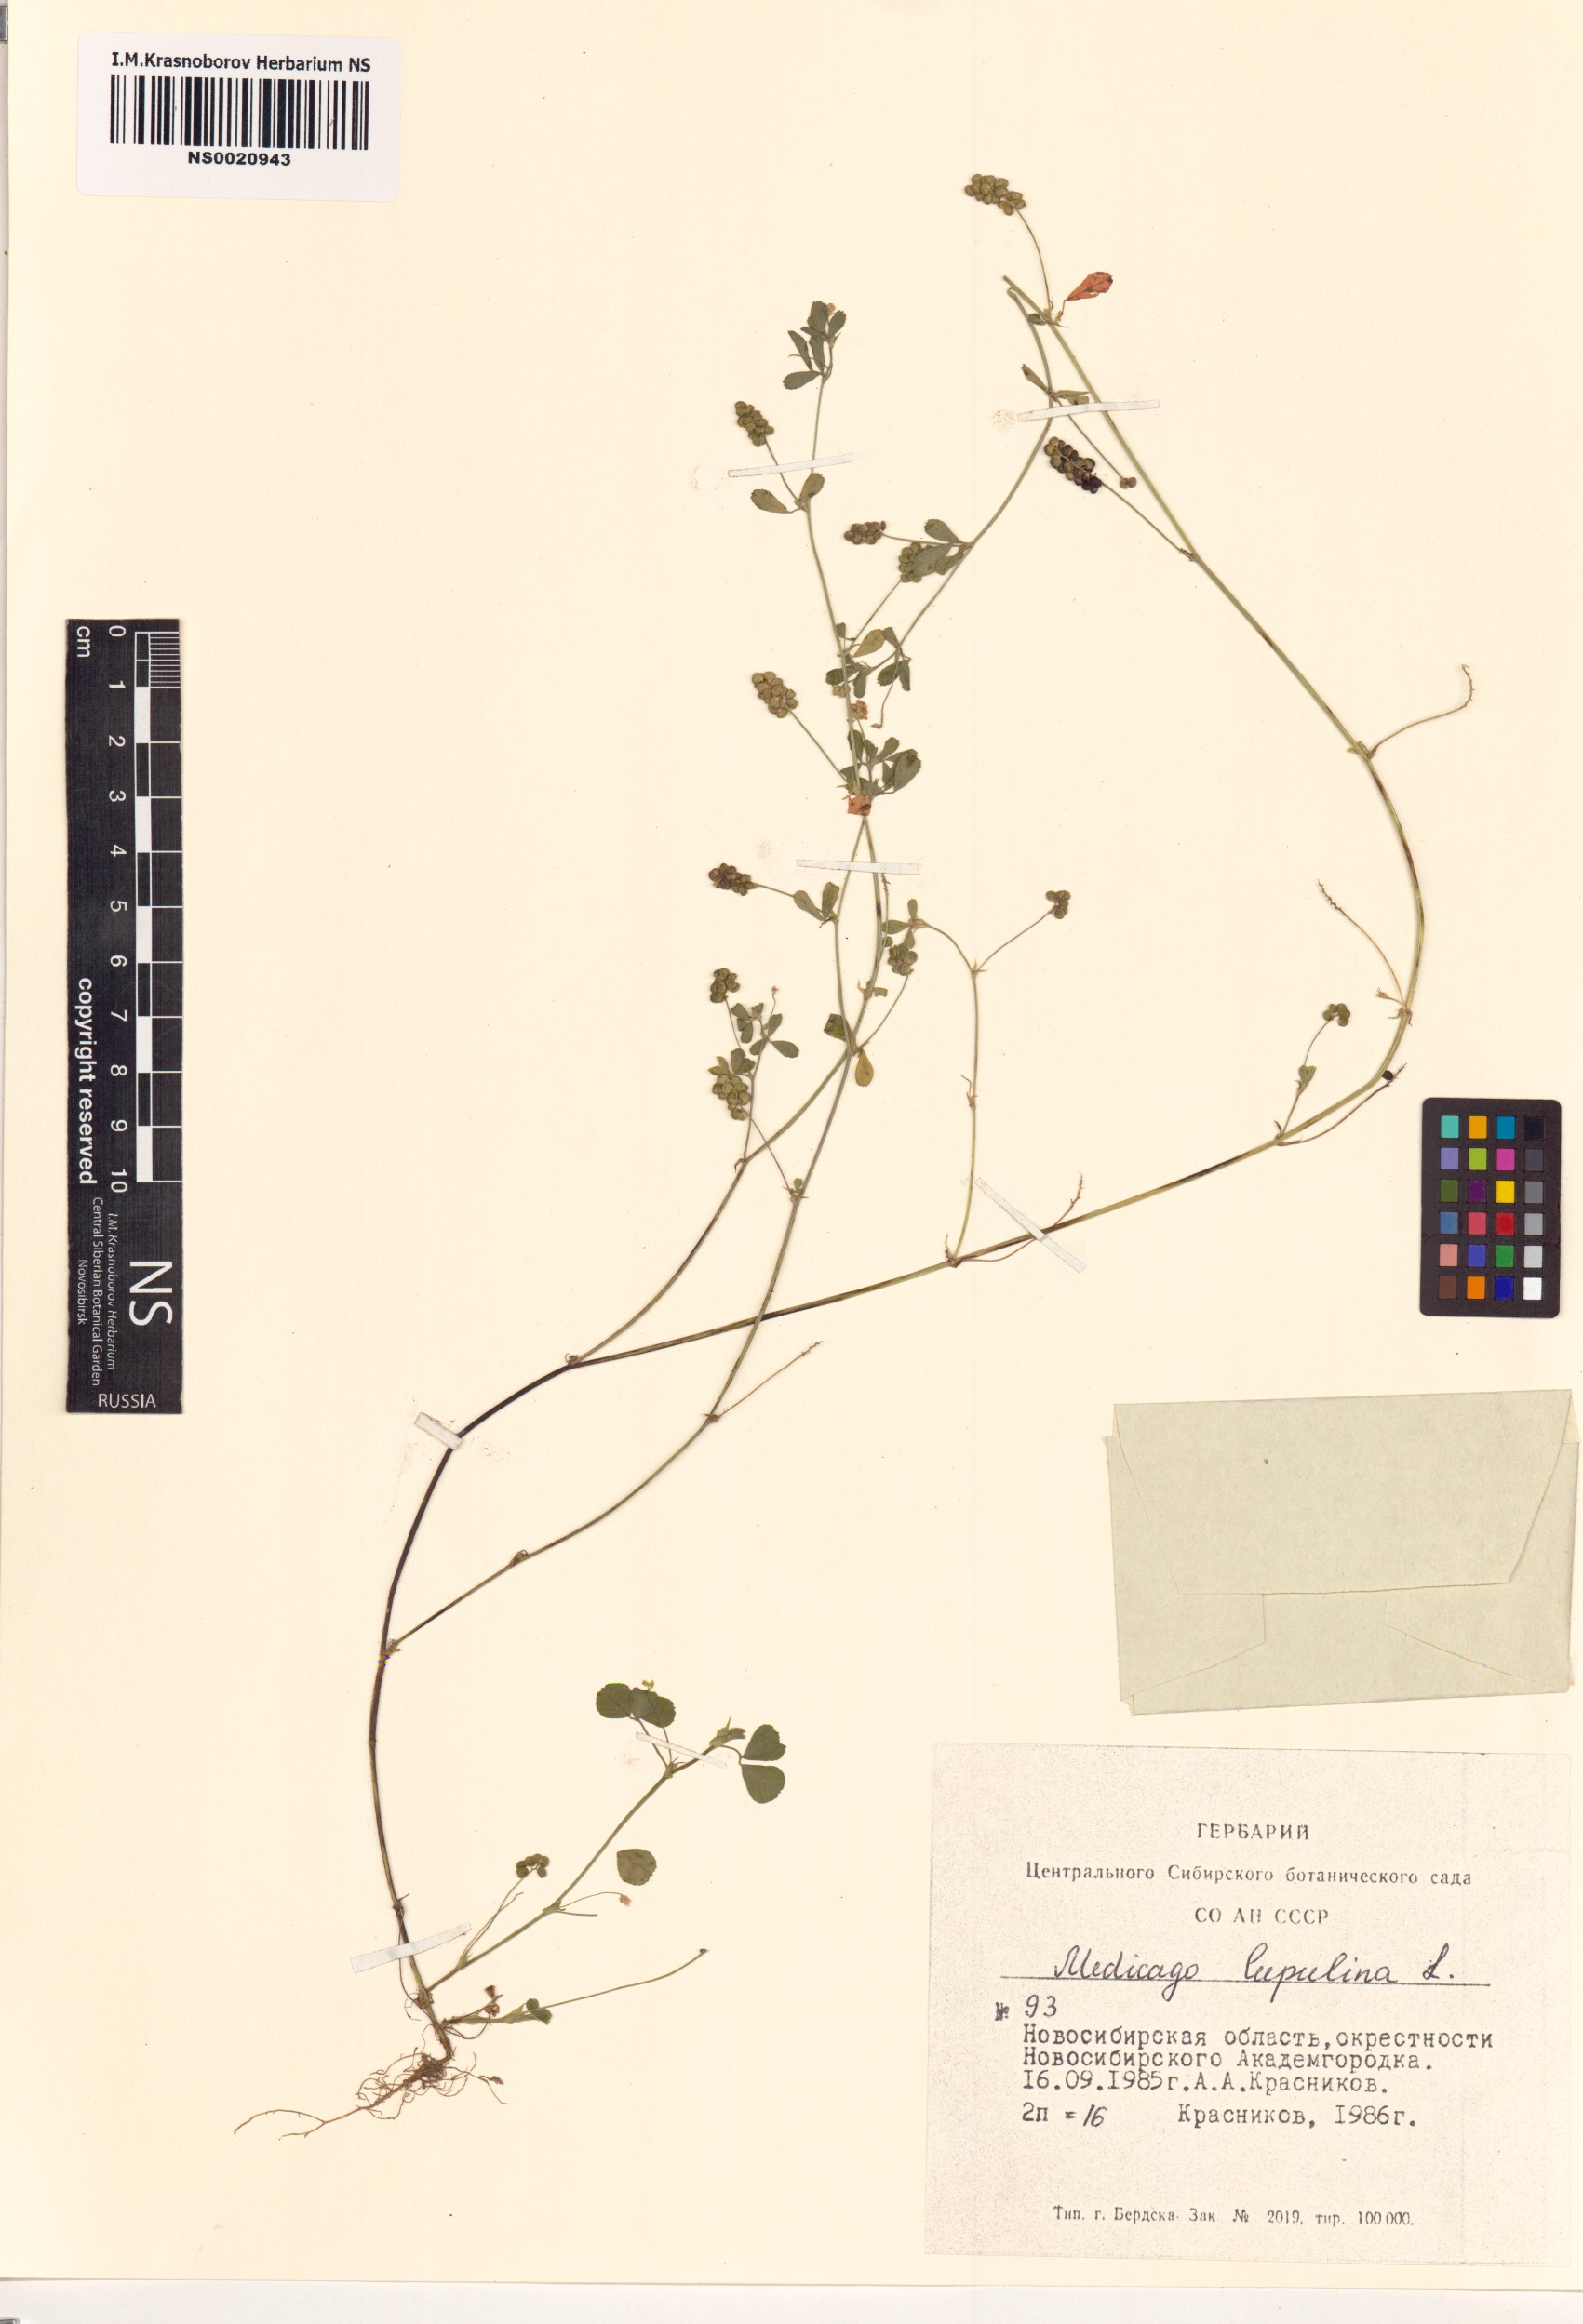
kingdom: Plantae
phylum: Tracheophyta
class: Magnoliopsida
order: Fabales
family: Fabaceae
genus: Medicago
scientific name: Medicago lupulina
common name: Black medick
